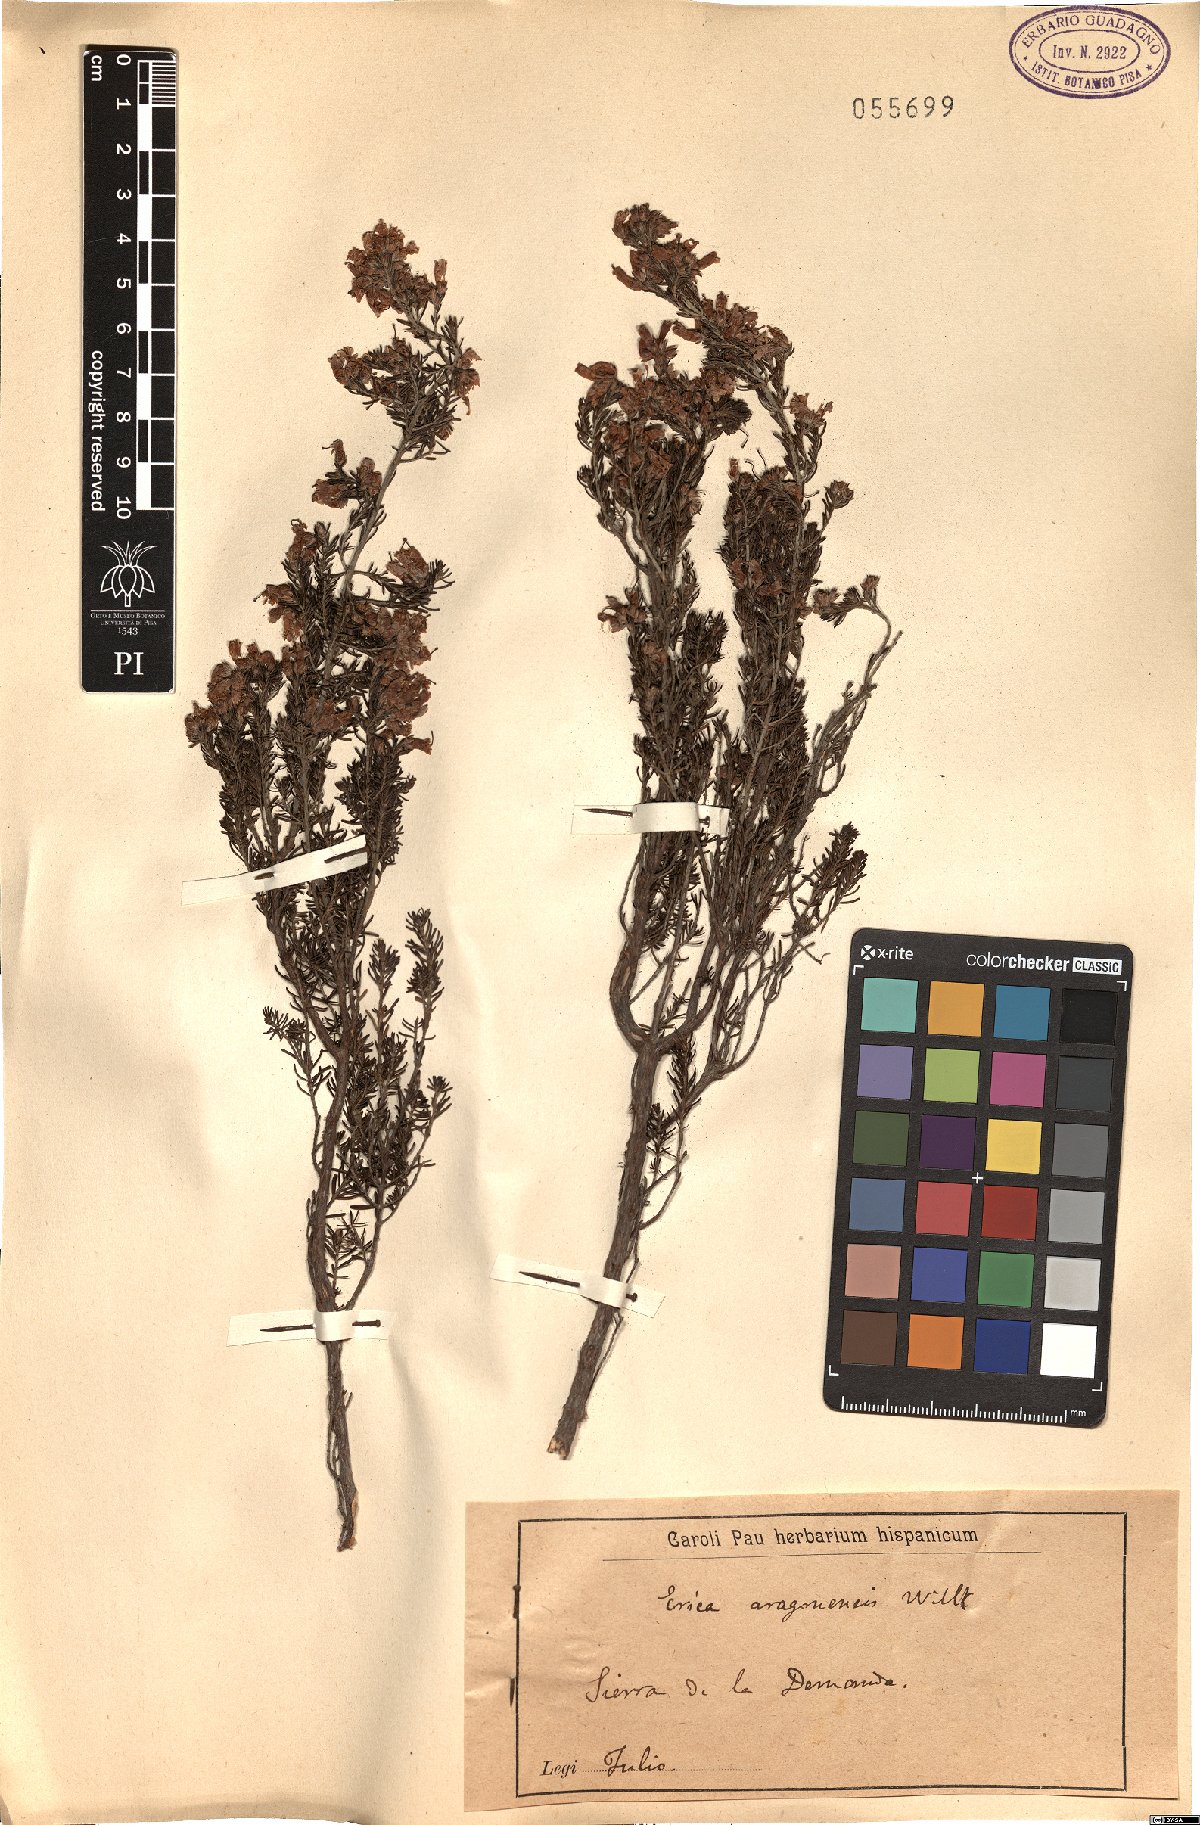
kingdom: Plantae
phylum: Tracheophyta
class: Magnoliopsida
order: Ericales
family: Ericaceae
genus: Erica
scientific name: Erica australis
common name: Spanish heath
